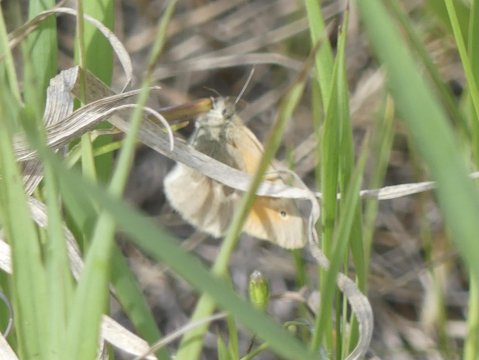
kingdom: Animalia
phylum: Arthropoda
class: Insecta
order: Lepidoptera
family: Nymphalidae
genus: Coenonympha
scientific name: Coenonympha tullia
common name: Large Heath
